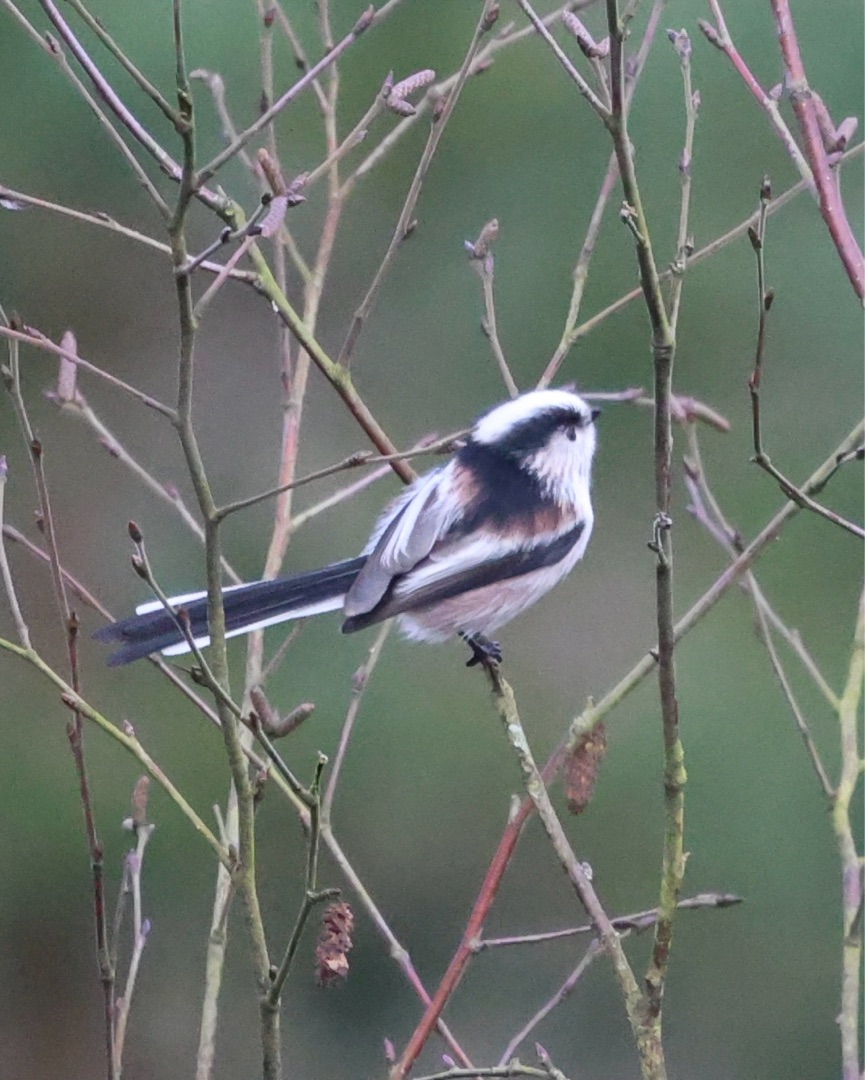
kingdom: Animalia
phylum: Chordata
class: Aves
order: Passeriformes
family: Aegithalidae
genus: Aegithalos
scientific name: Aegithalos caudatus
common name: Sydlig halemejse
